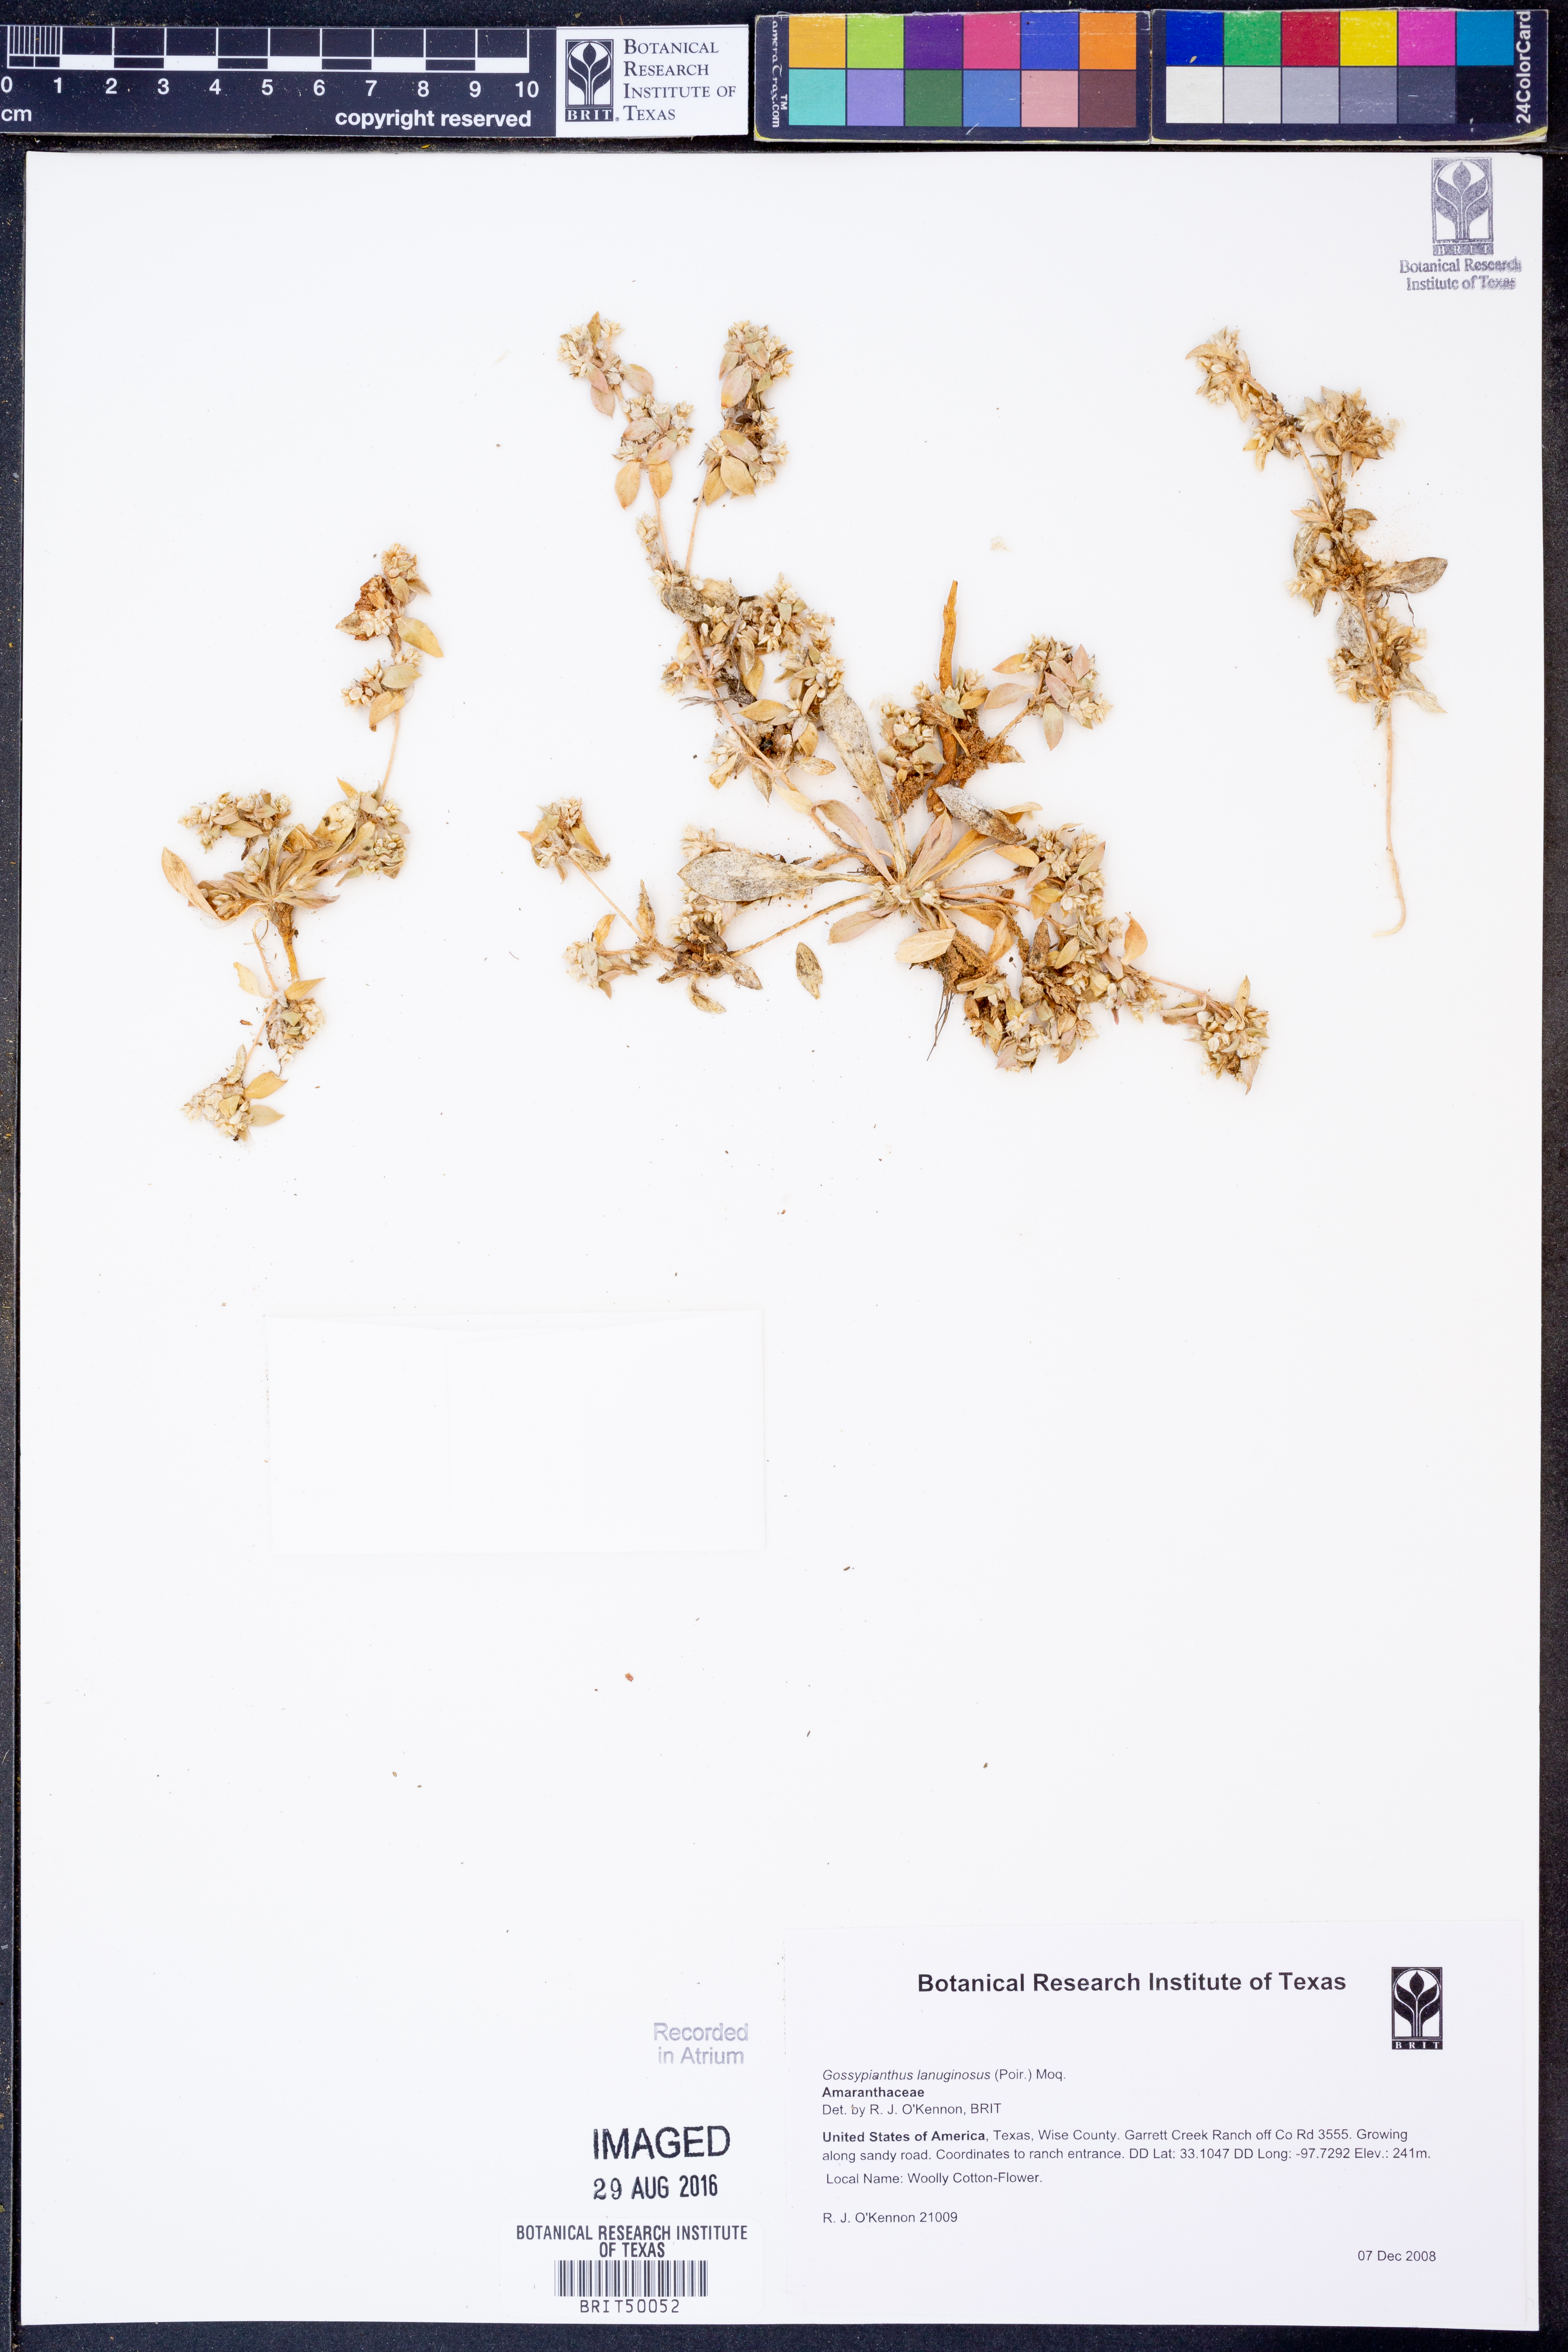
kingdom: Plantae
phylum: Tracheophyta
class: Magnoliopsida
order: Caryophyllales
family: Amaranthaceae
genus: Gomphrena
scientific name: Gomphrena lanuparonychioides
